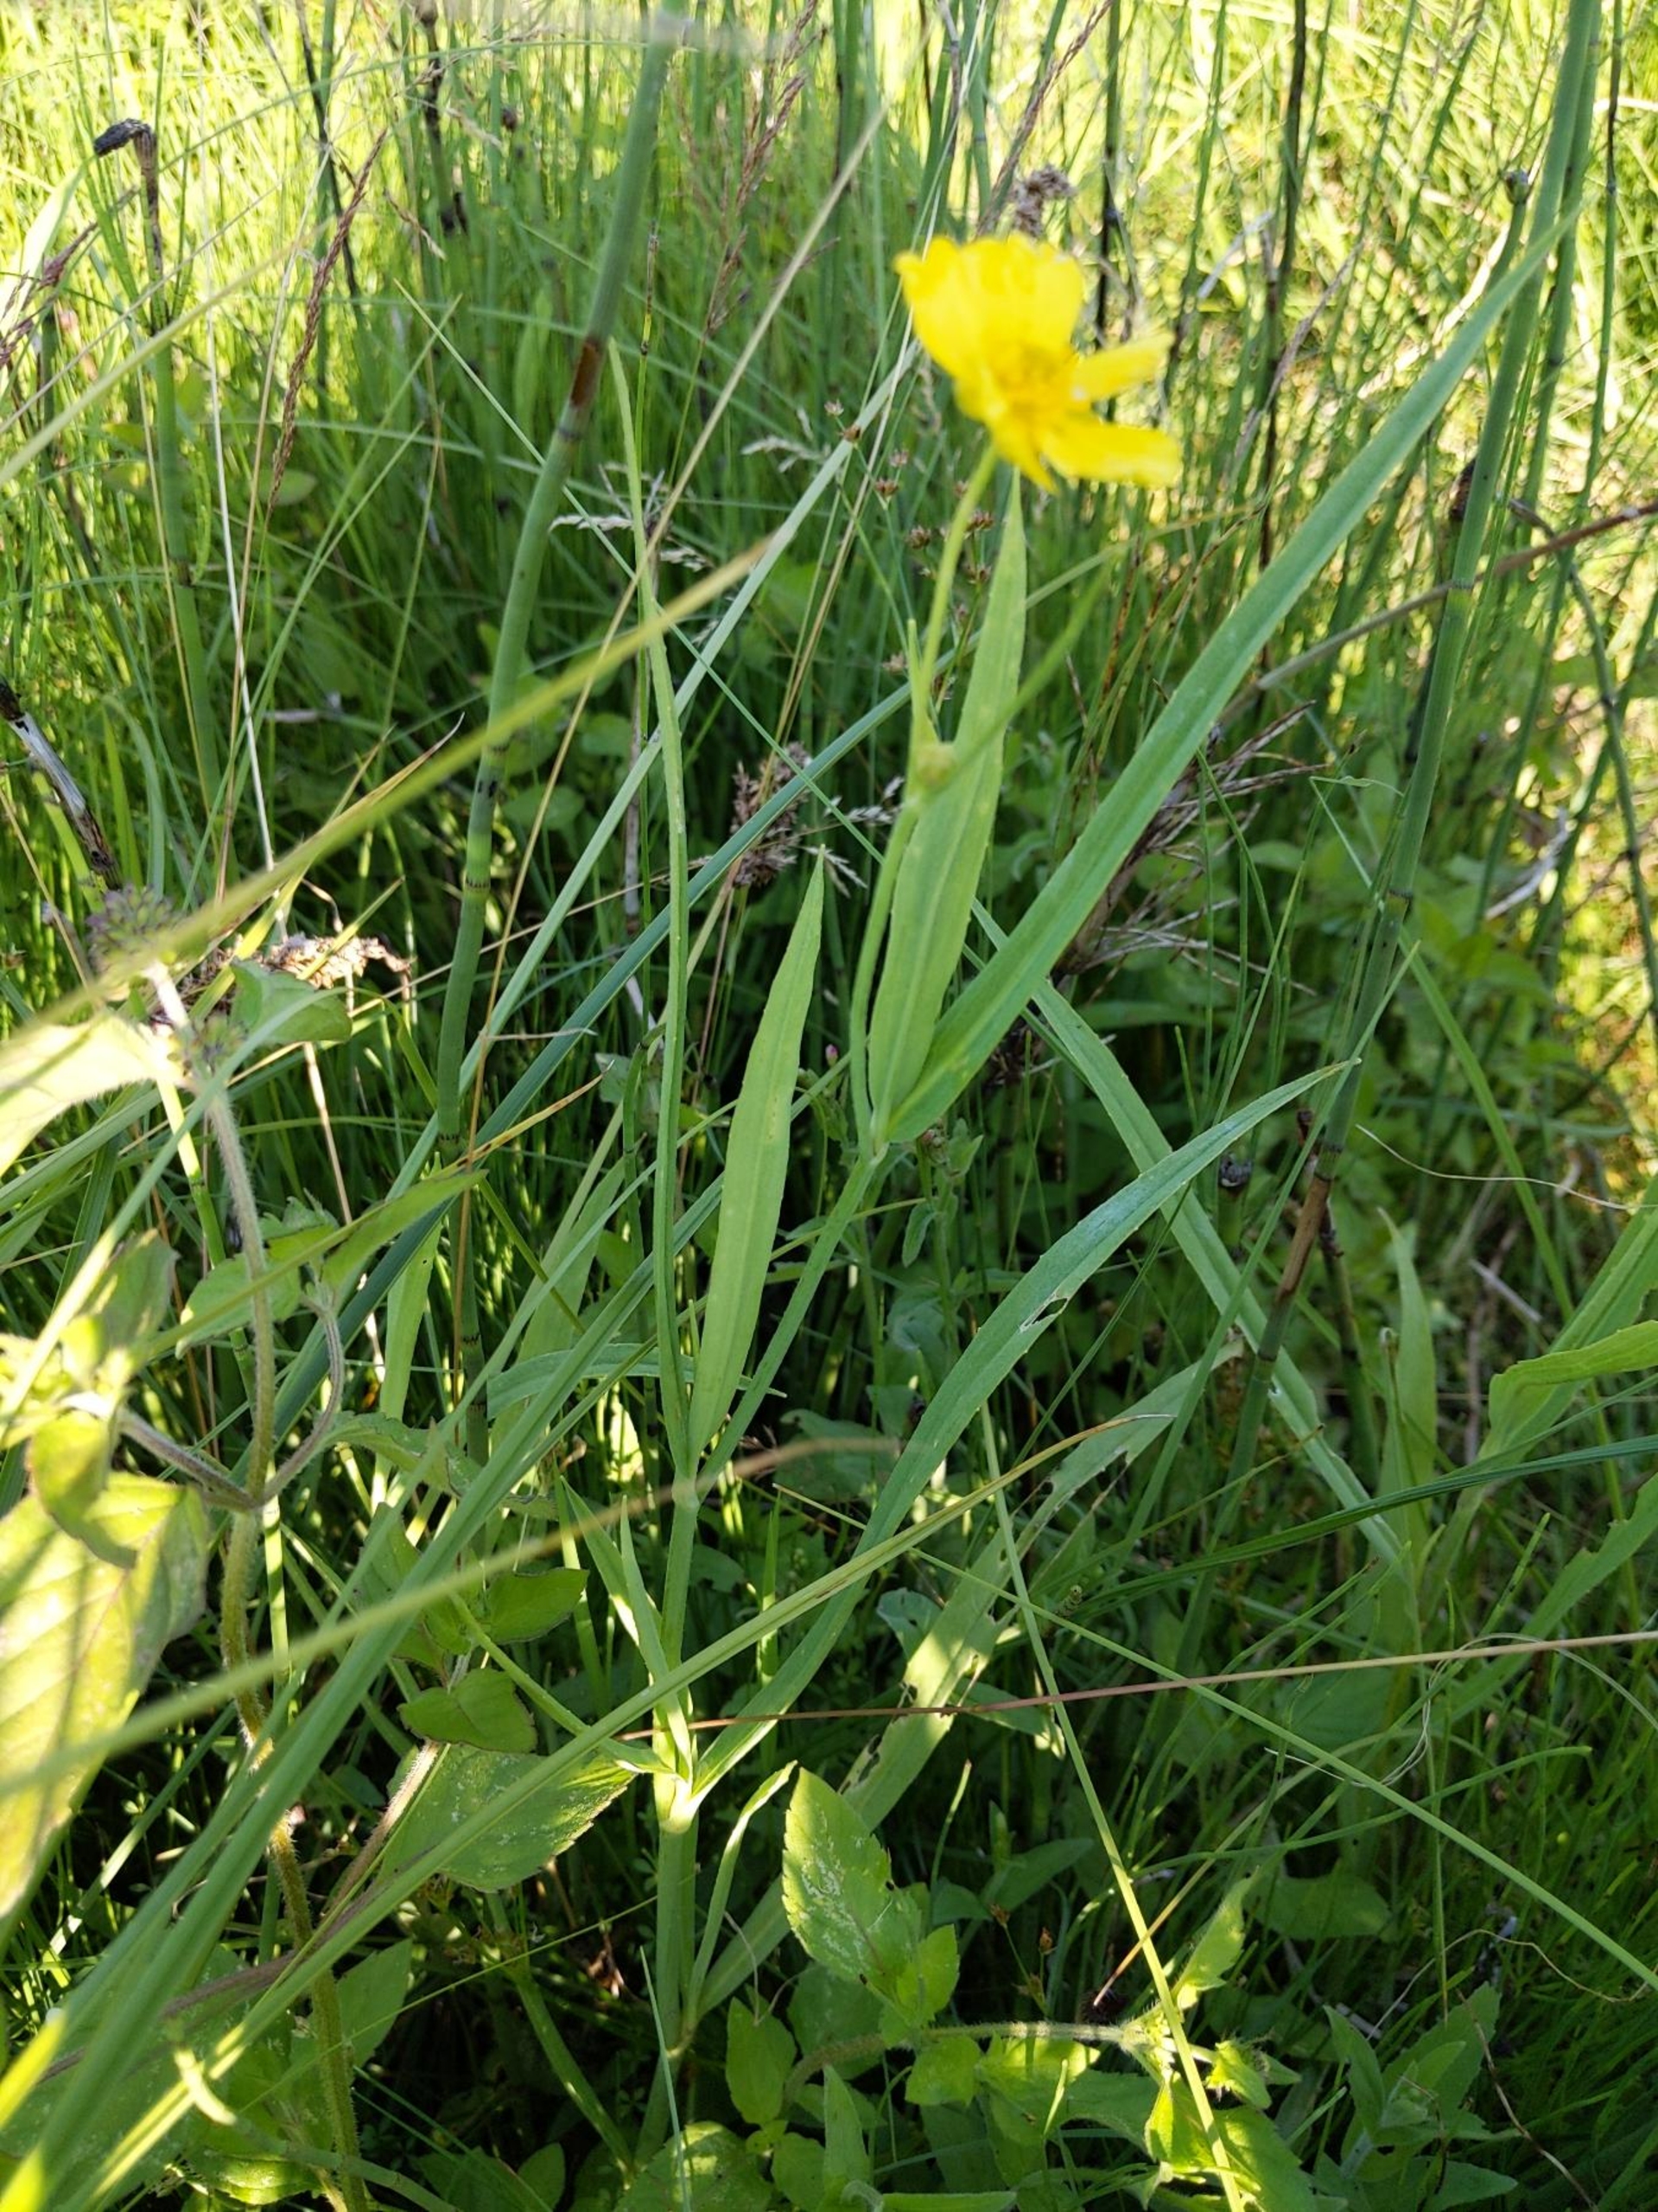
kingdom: Plantae
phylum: Tracheophyta
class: Magnoliopsida
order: Ranunculales
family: Ranunculaceae
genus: Ranunculus
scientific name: Ranunculus lingua
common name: Langbladet ranunkel
